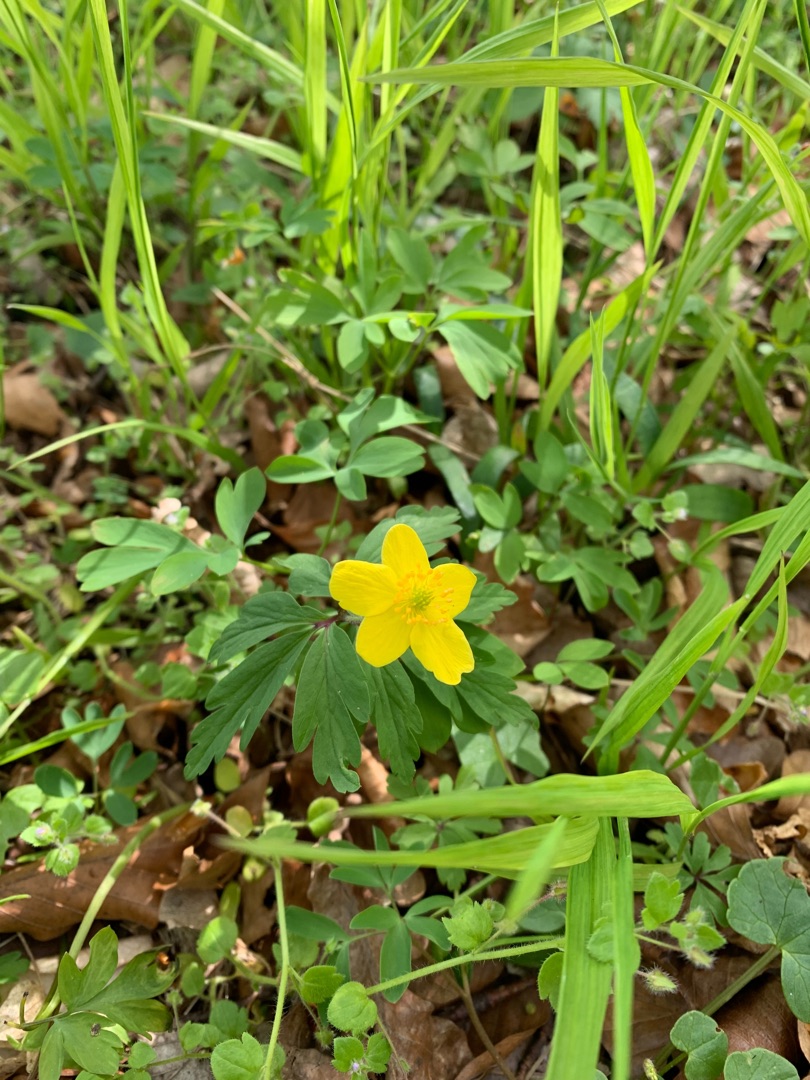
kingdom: Plantae
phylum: Tracheophyta
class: Magnoliopsida
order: Ranunculales
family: Ranunculaceae
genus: Anemone
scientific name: Anemone ranunculoides
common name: Gul anemone
